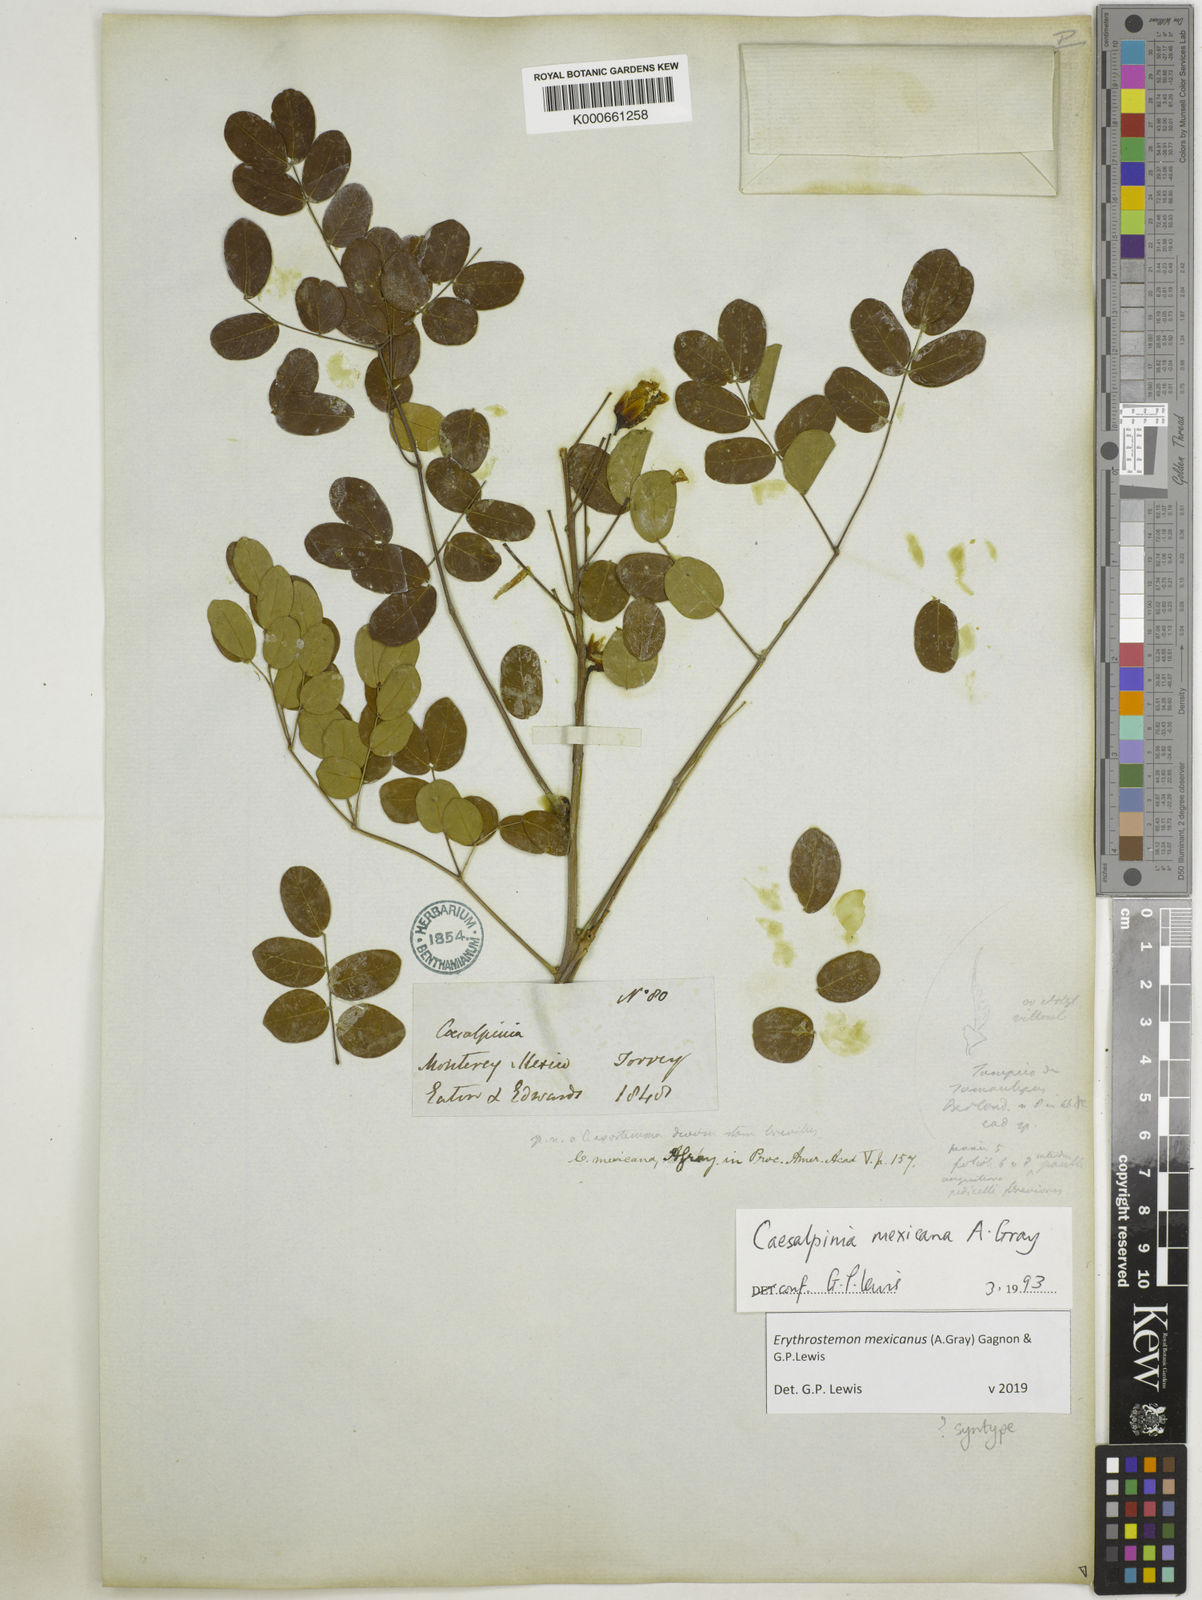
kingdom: Plantae
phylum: Tracheophyta
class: Magnoliopsida
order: Fabales
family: Fabaceae
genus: Erythrostemon
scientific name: Erythrostemon mexicanus
